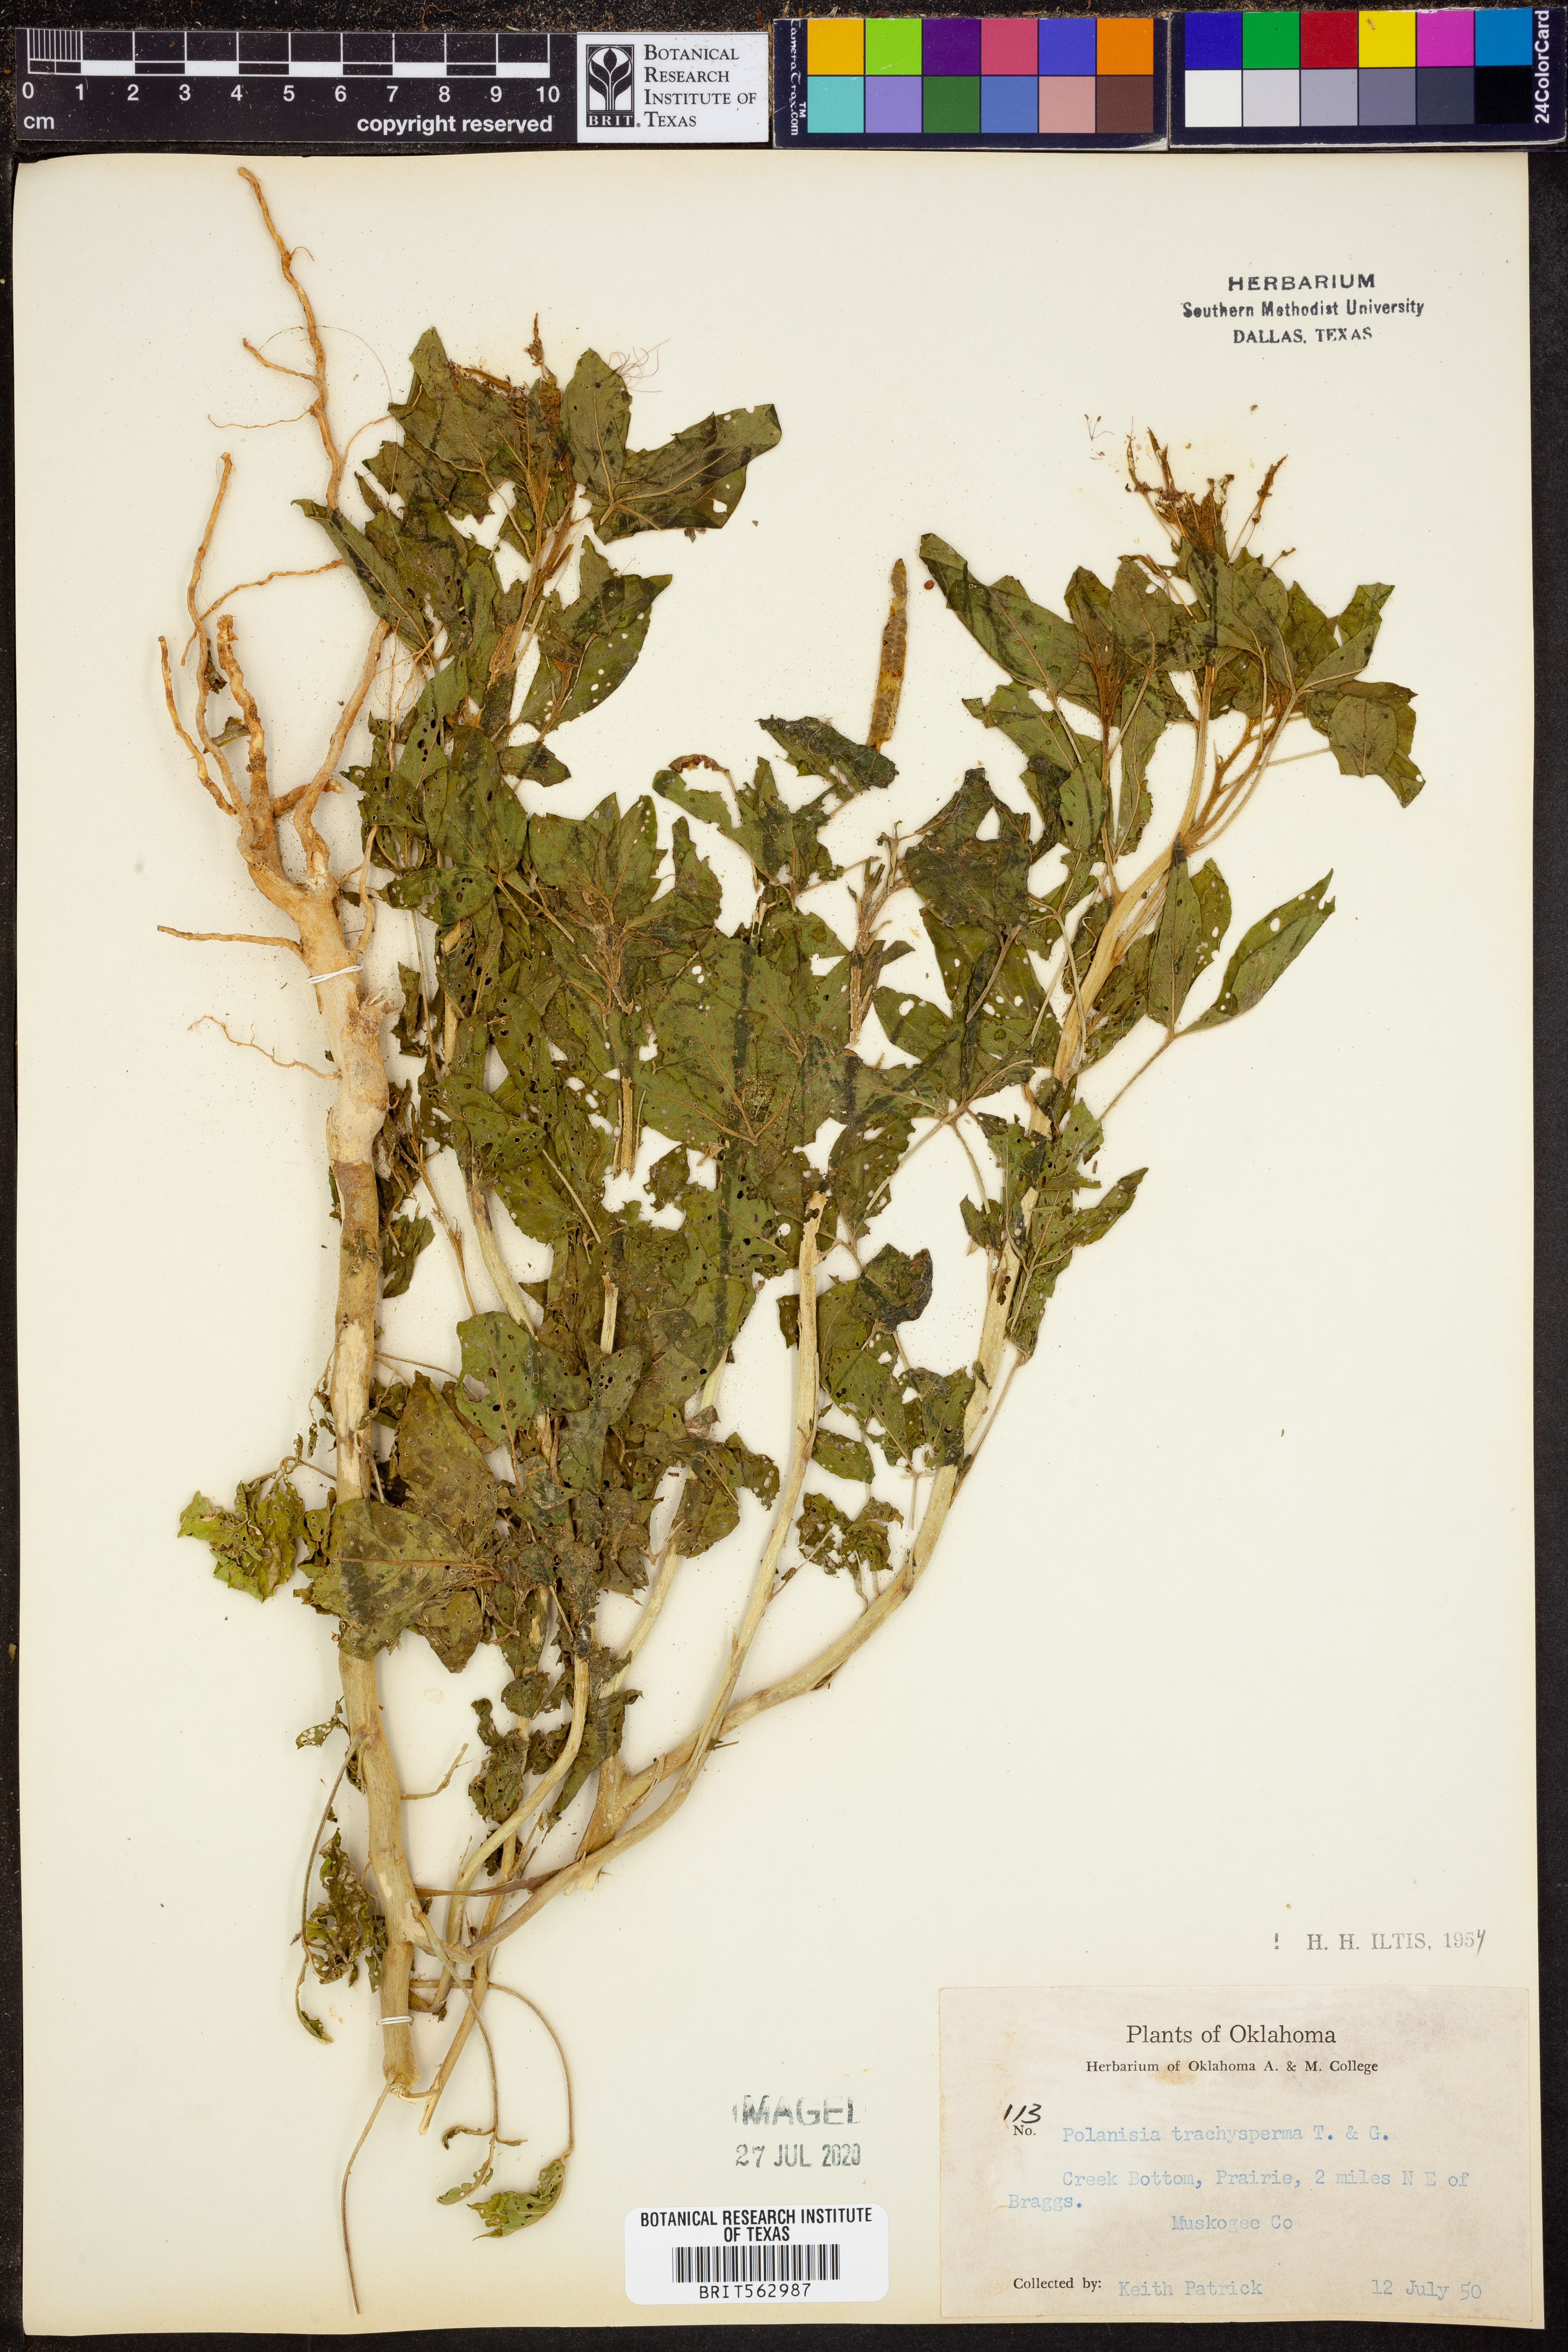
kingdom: Plantae
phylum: Tracheophyta
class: Magnoliopsida
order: Brassicales
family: Cleomaceae
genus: Polanisia
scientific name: Polanisia trachysperma
